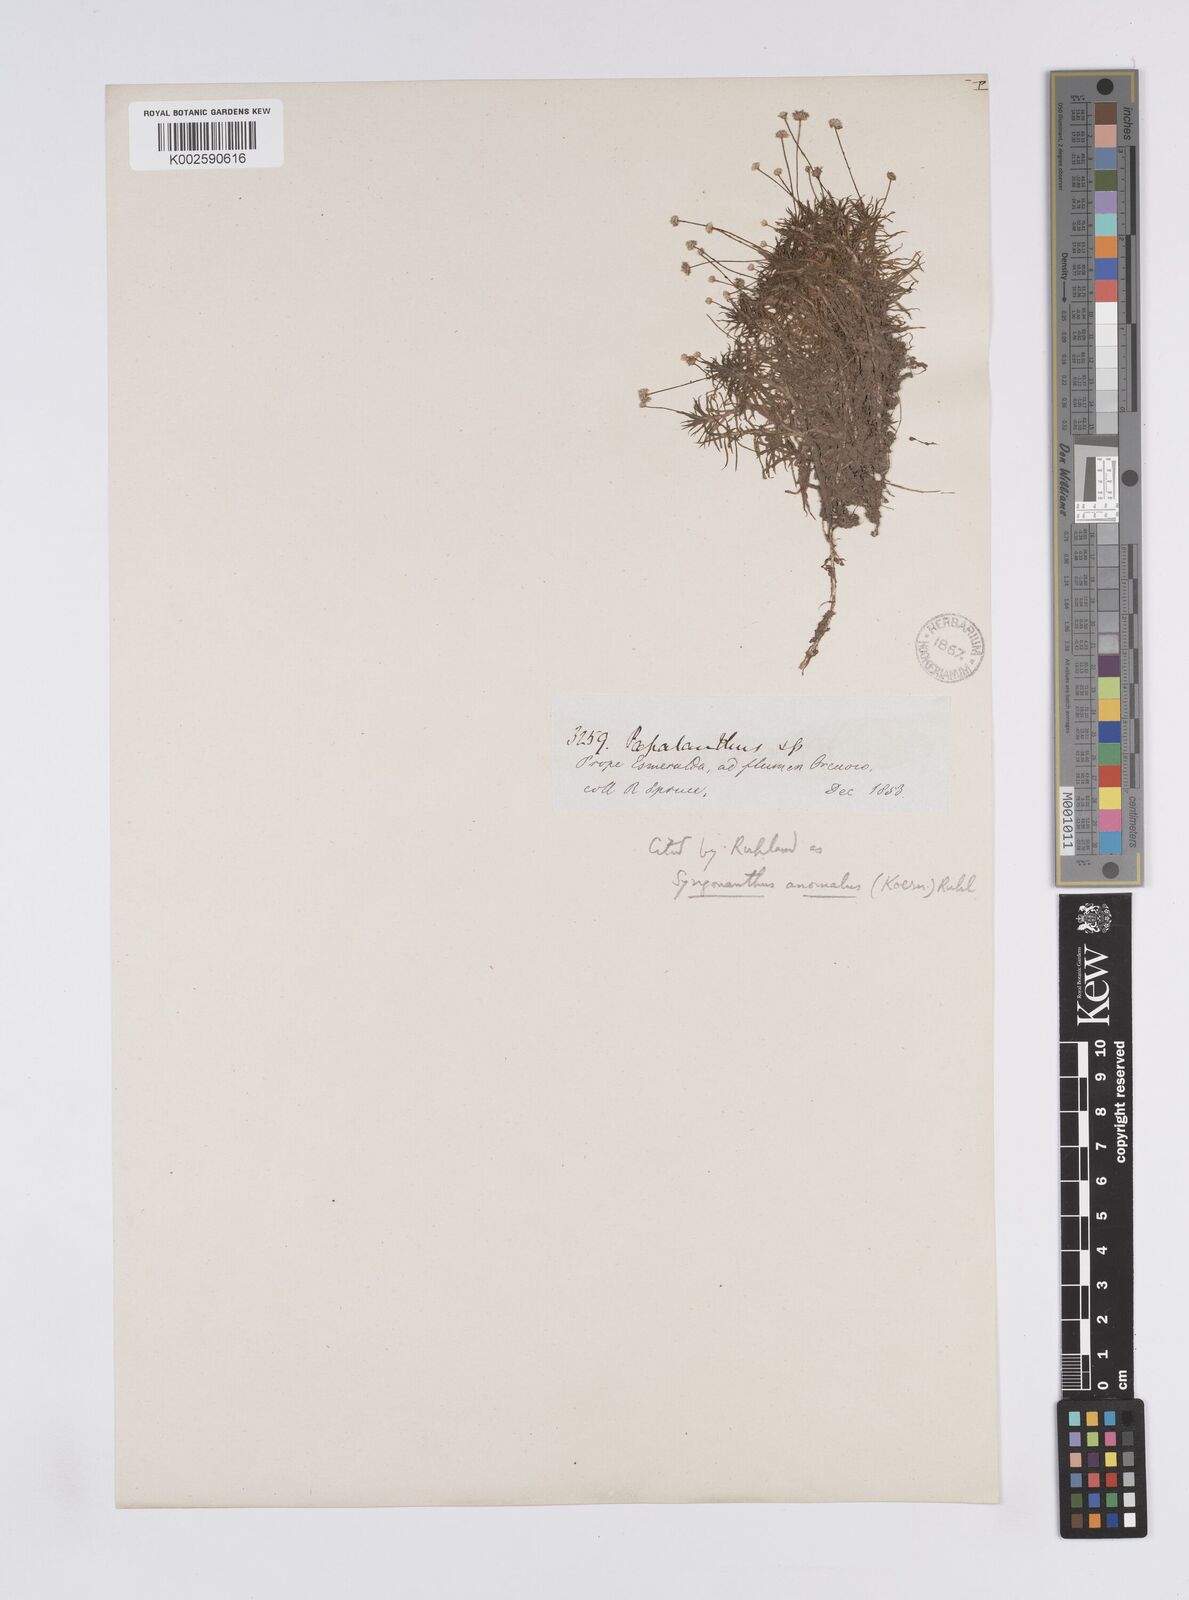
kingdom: Plantae
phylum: Tracheophyta
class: Liliopsida
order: Poales
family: Eriocaulaceae
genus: Syngonanthus
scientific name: Syngonanthus anomalus
